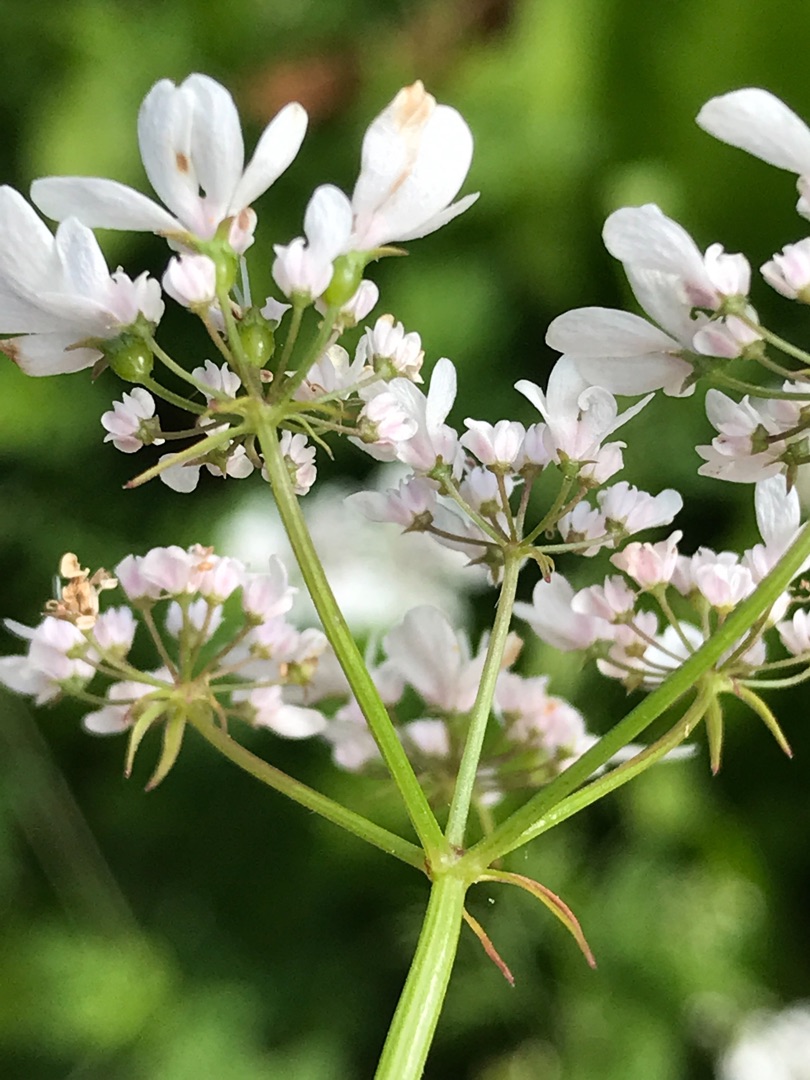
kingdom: Plantae
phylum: Tracheophyta
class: Magnoliopsida
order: Apiales
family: Apiaceae
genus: Coriandrum
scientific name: Coriandrum sativum
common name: Koriander
